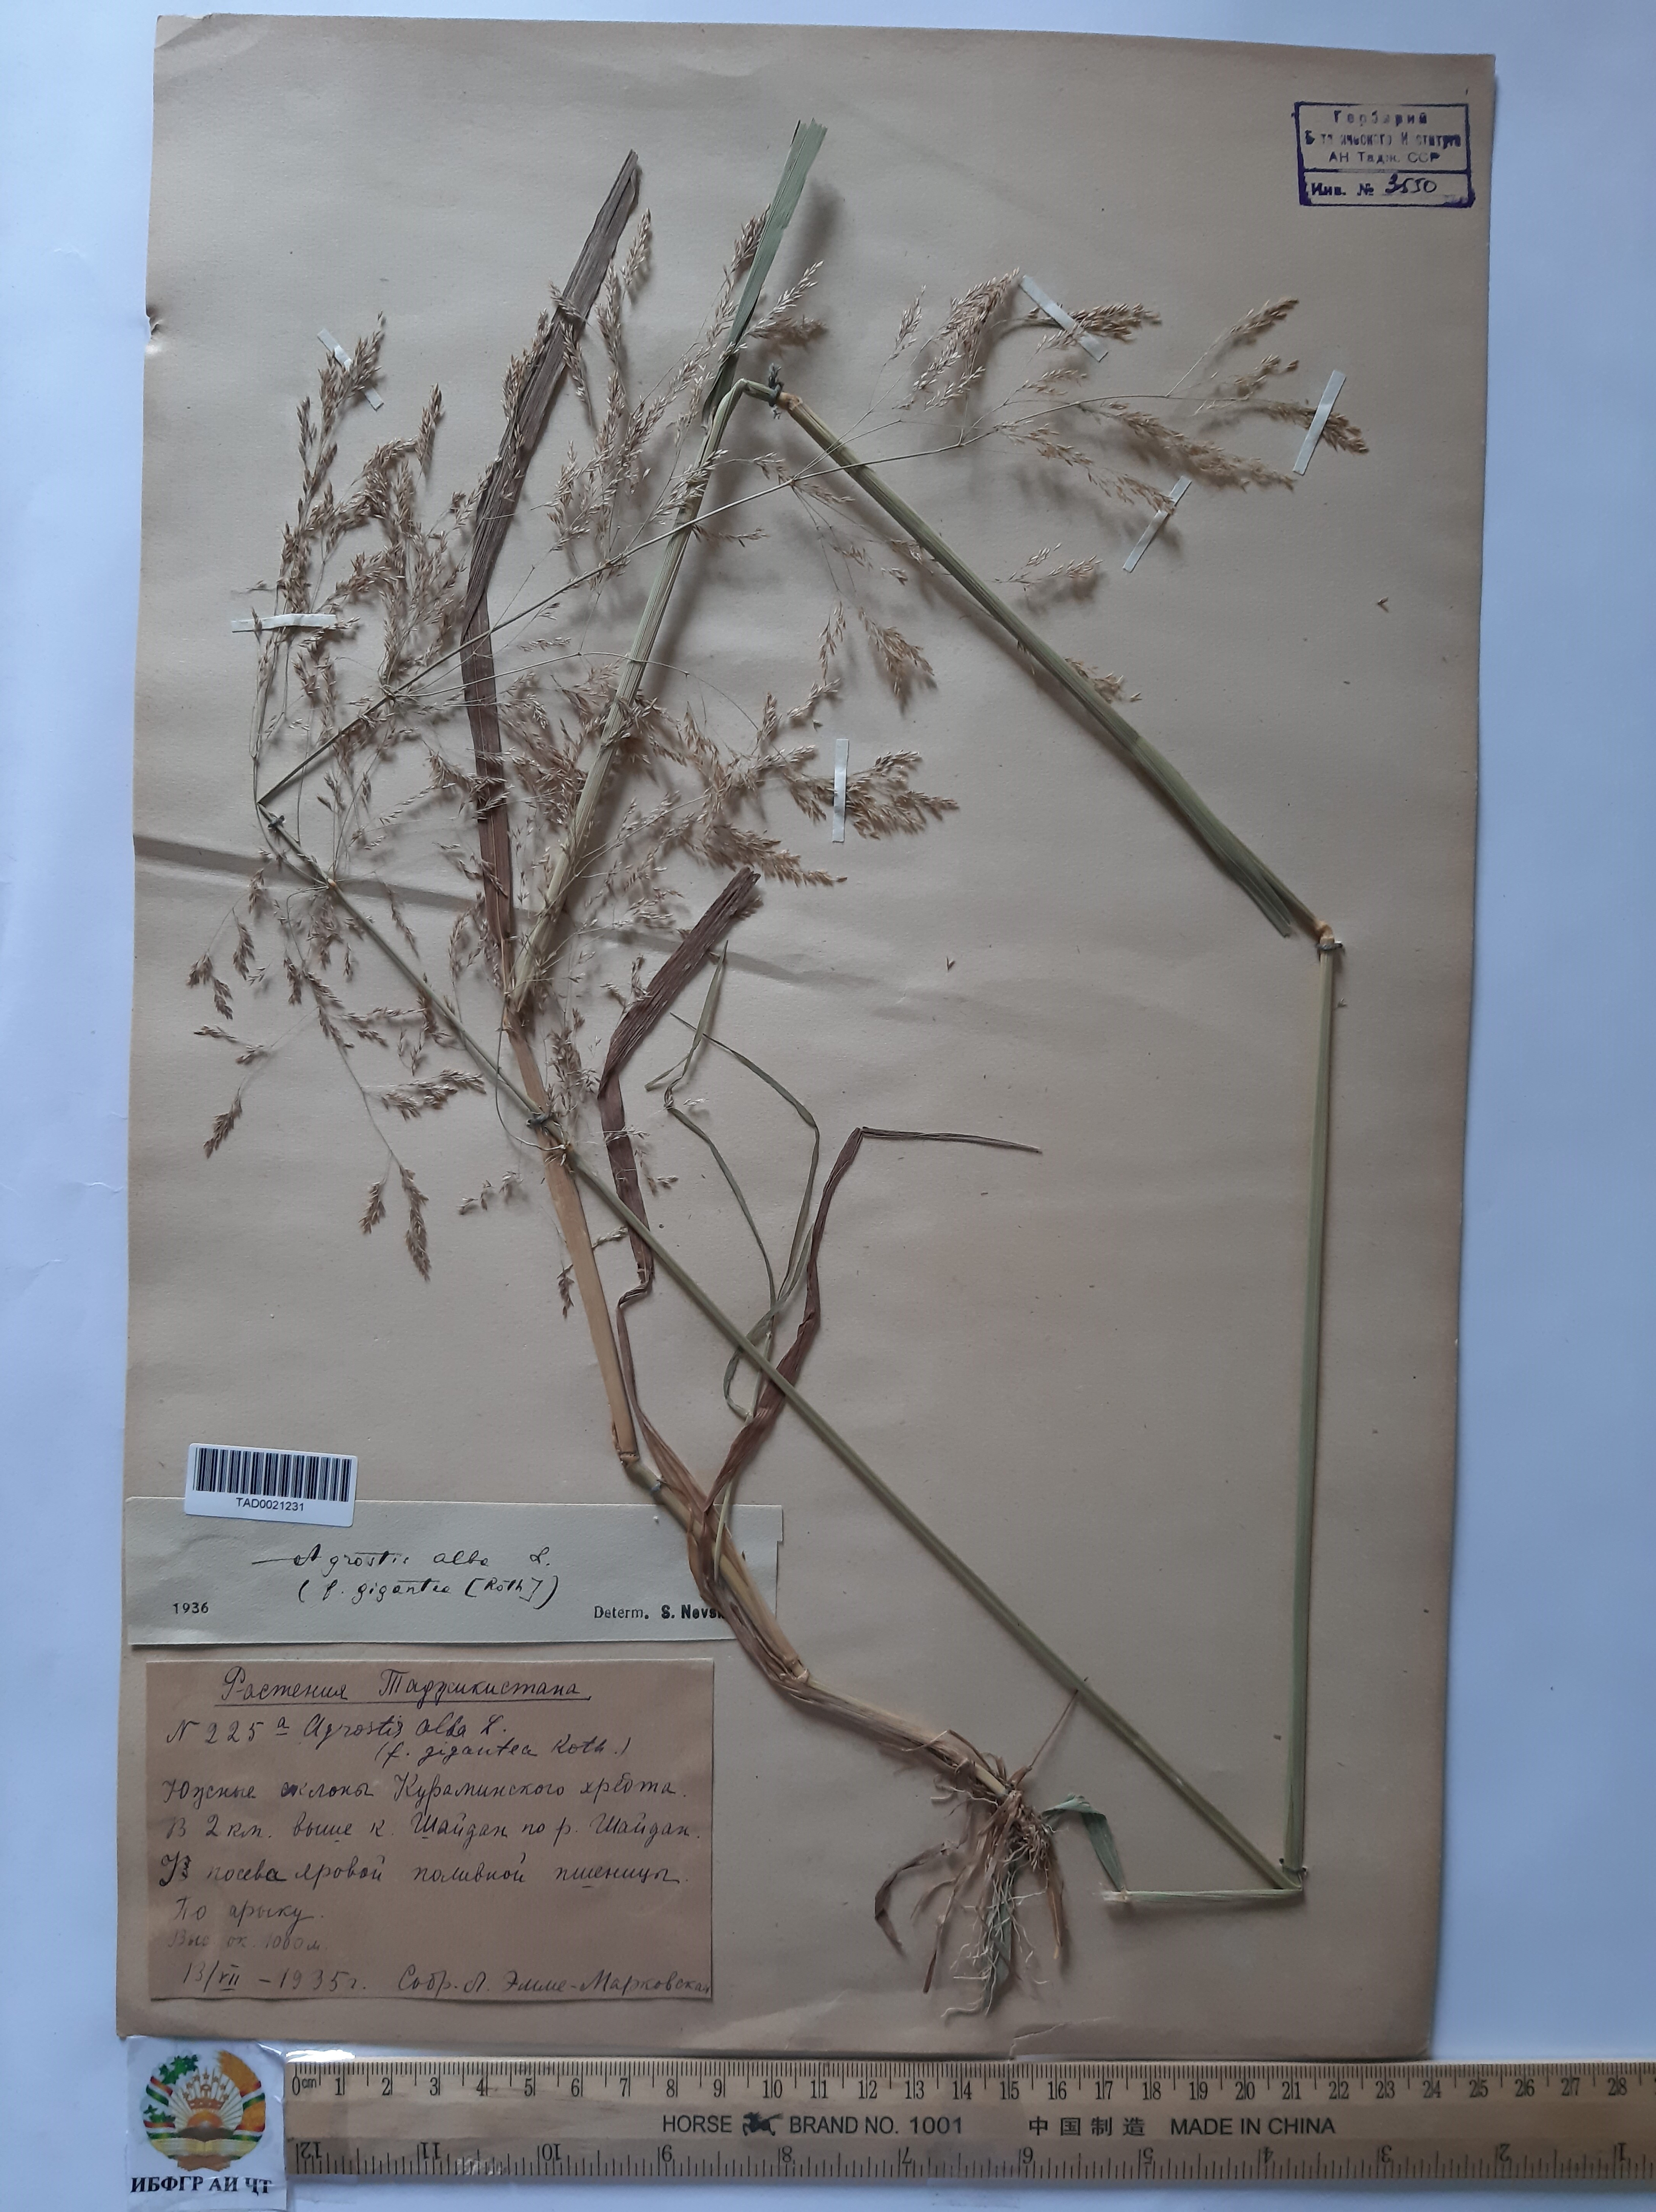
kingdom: Plantae
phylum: Tracheophyta
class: Liliopsida
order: Poales
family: Poaceae
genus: Poa
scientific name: Poa nemoralis
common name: Wood bluegrass
